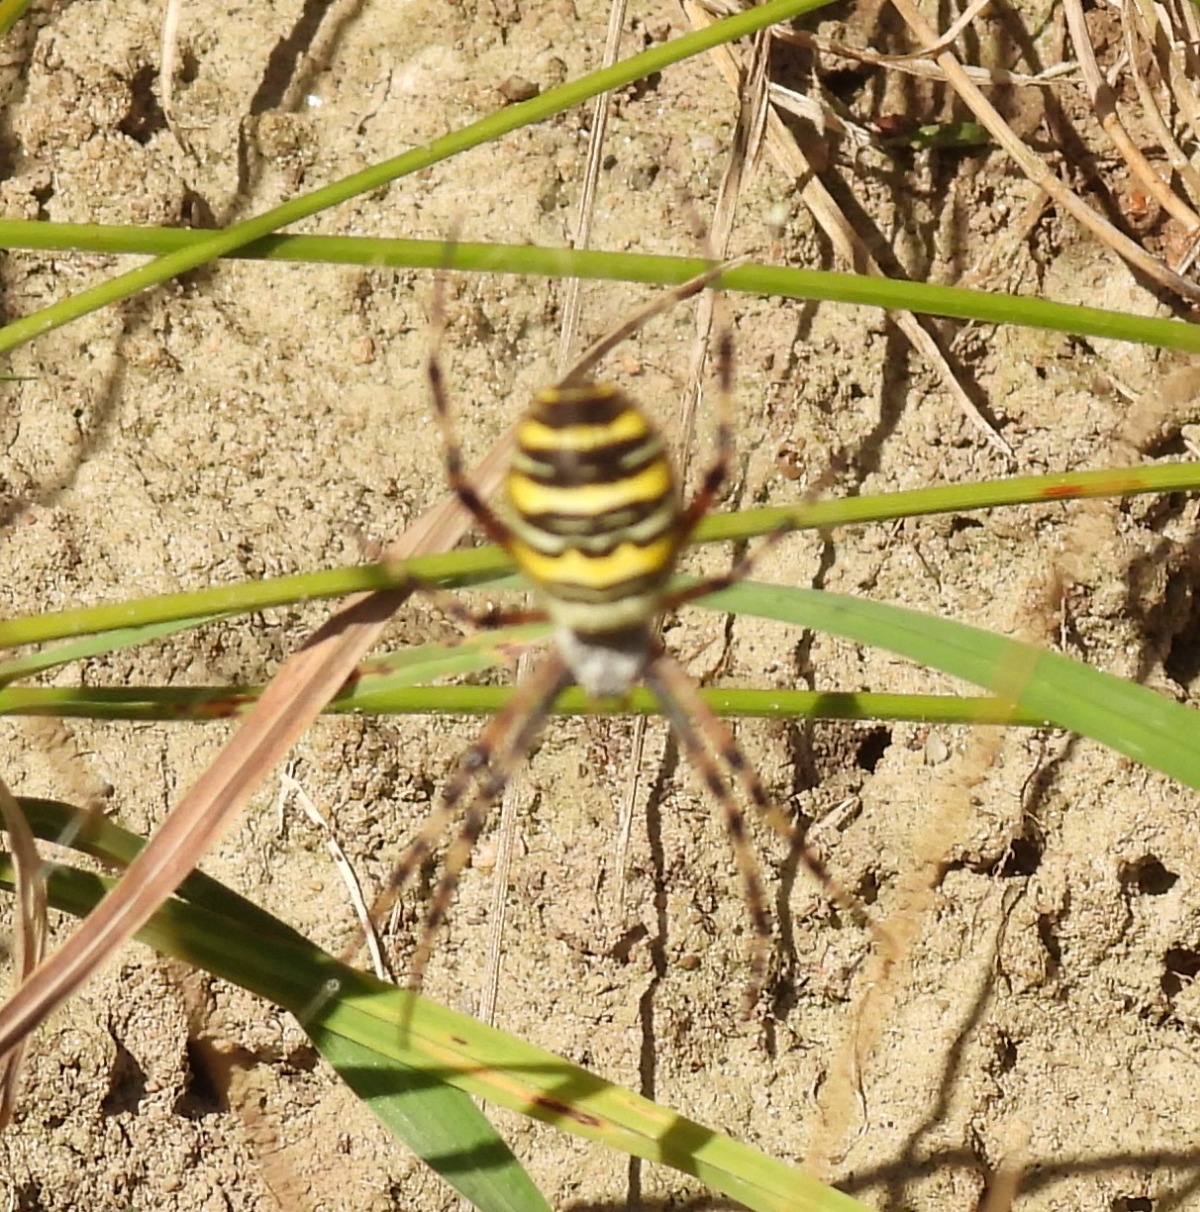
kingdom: Animalia
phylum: Arthropoda
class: Arachnida
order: Araneae
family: Araneidae
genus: Argiope
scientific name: Argiope bruennichi
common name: Hvepseedderkop
